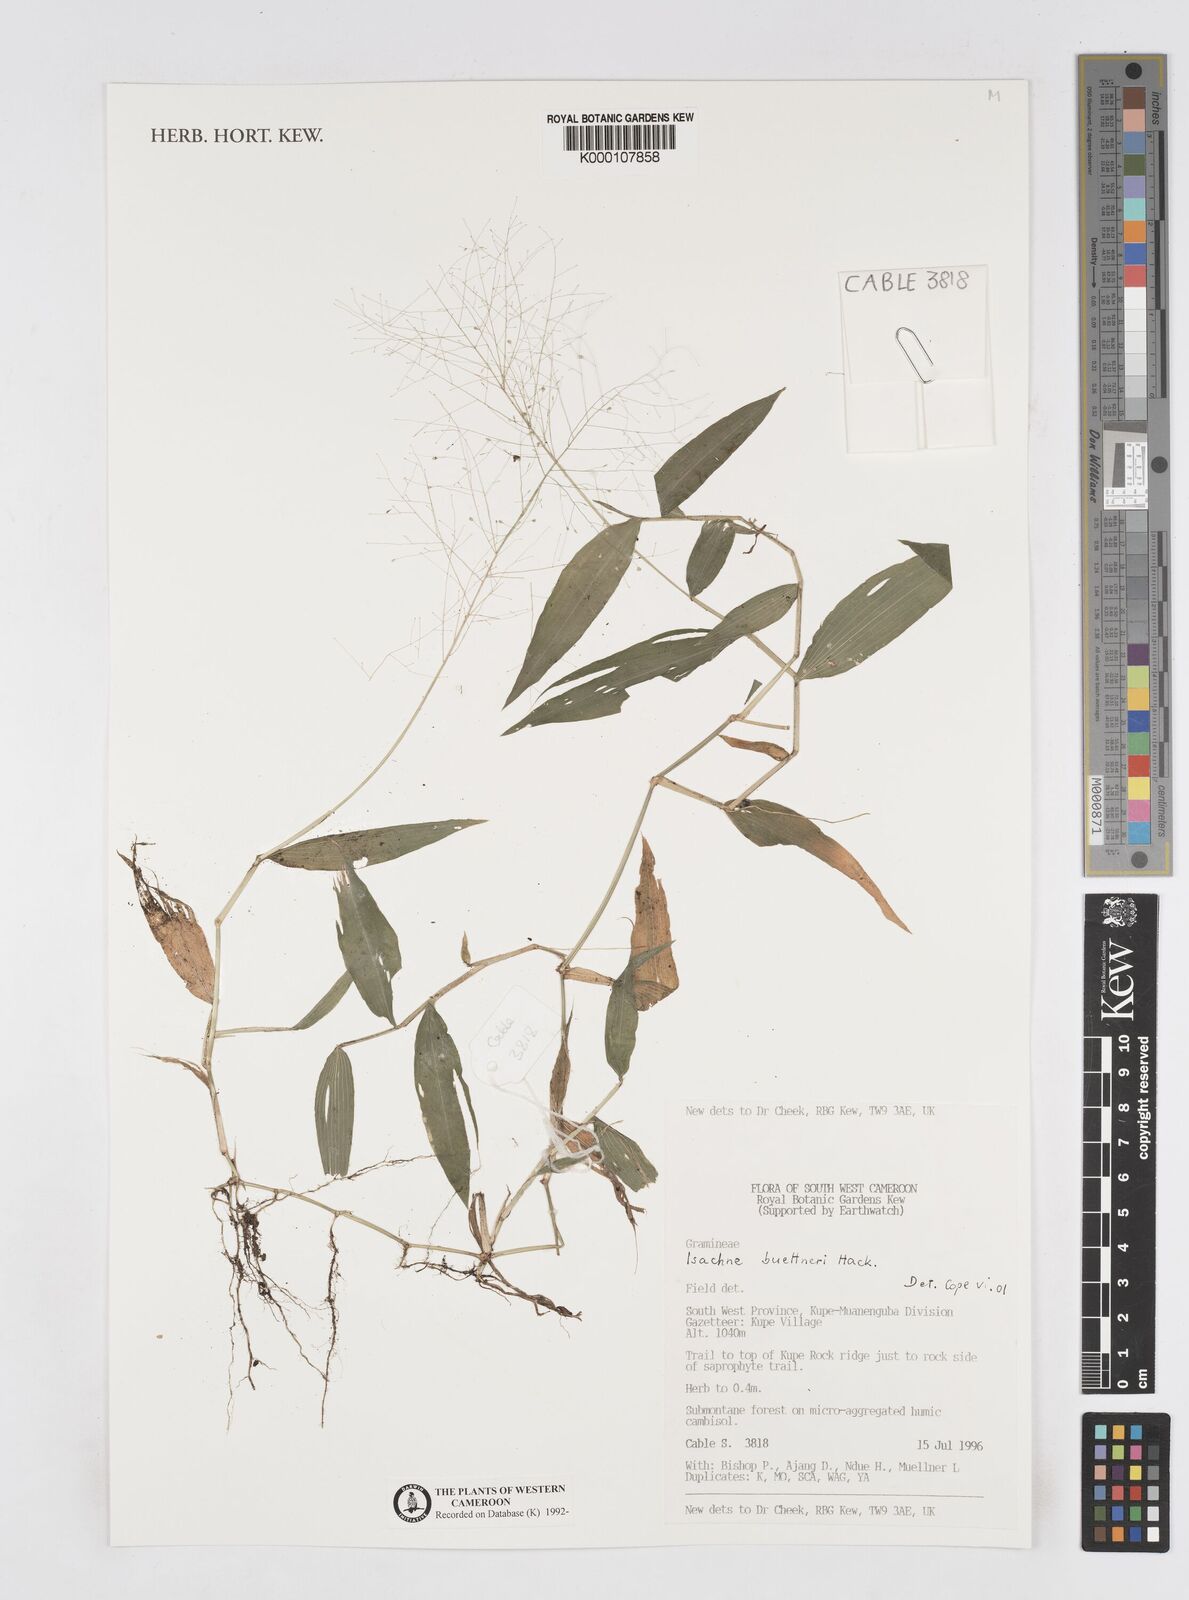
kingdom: Plantae
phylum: Tracheophyta
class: Liliopsida
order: Poales
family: Poaceae
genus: Isachne
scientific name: Isachne albens
